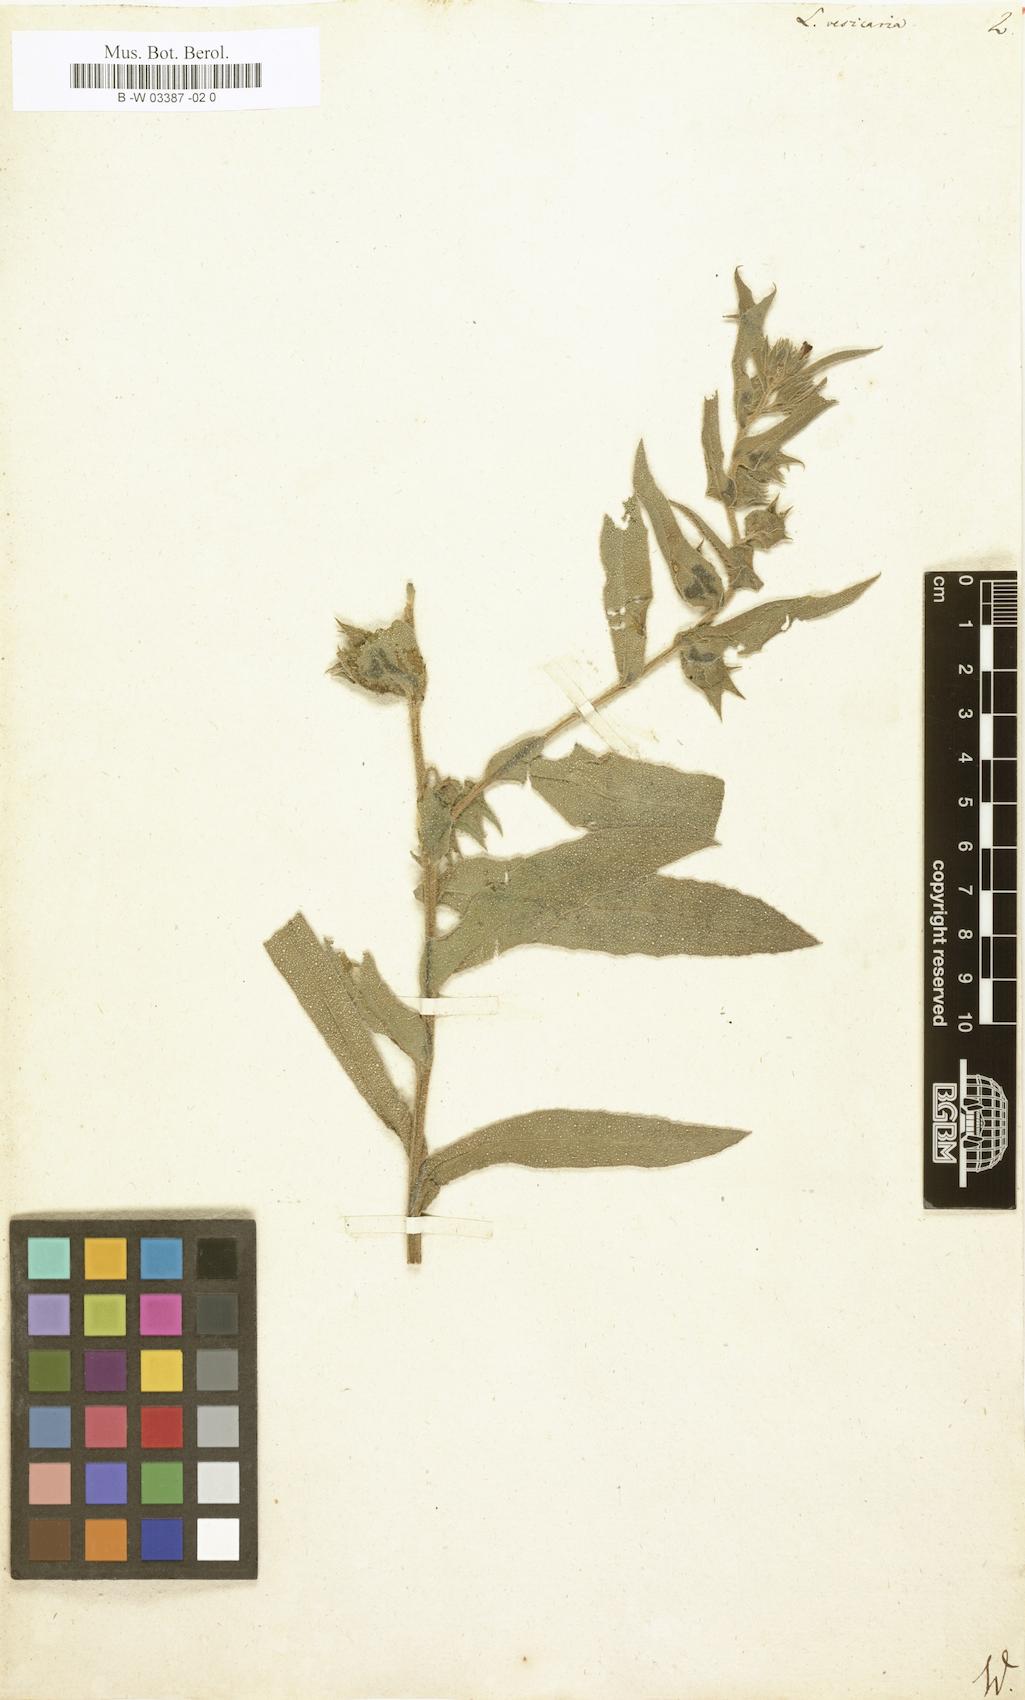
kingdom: Plantae
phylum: Tracheophyta
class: Magnoliopsida
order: Boraginales
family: Boraginaceae
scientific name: Boraginaceae
